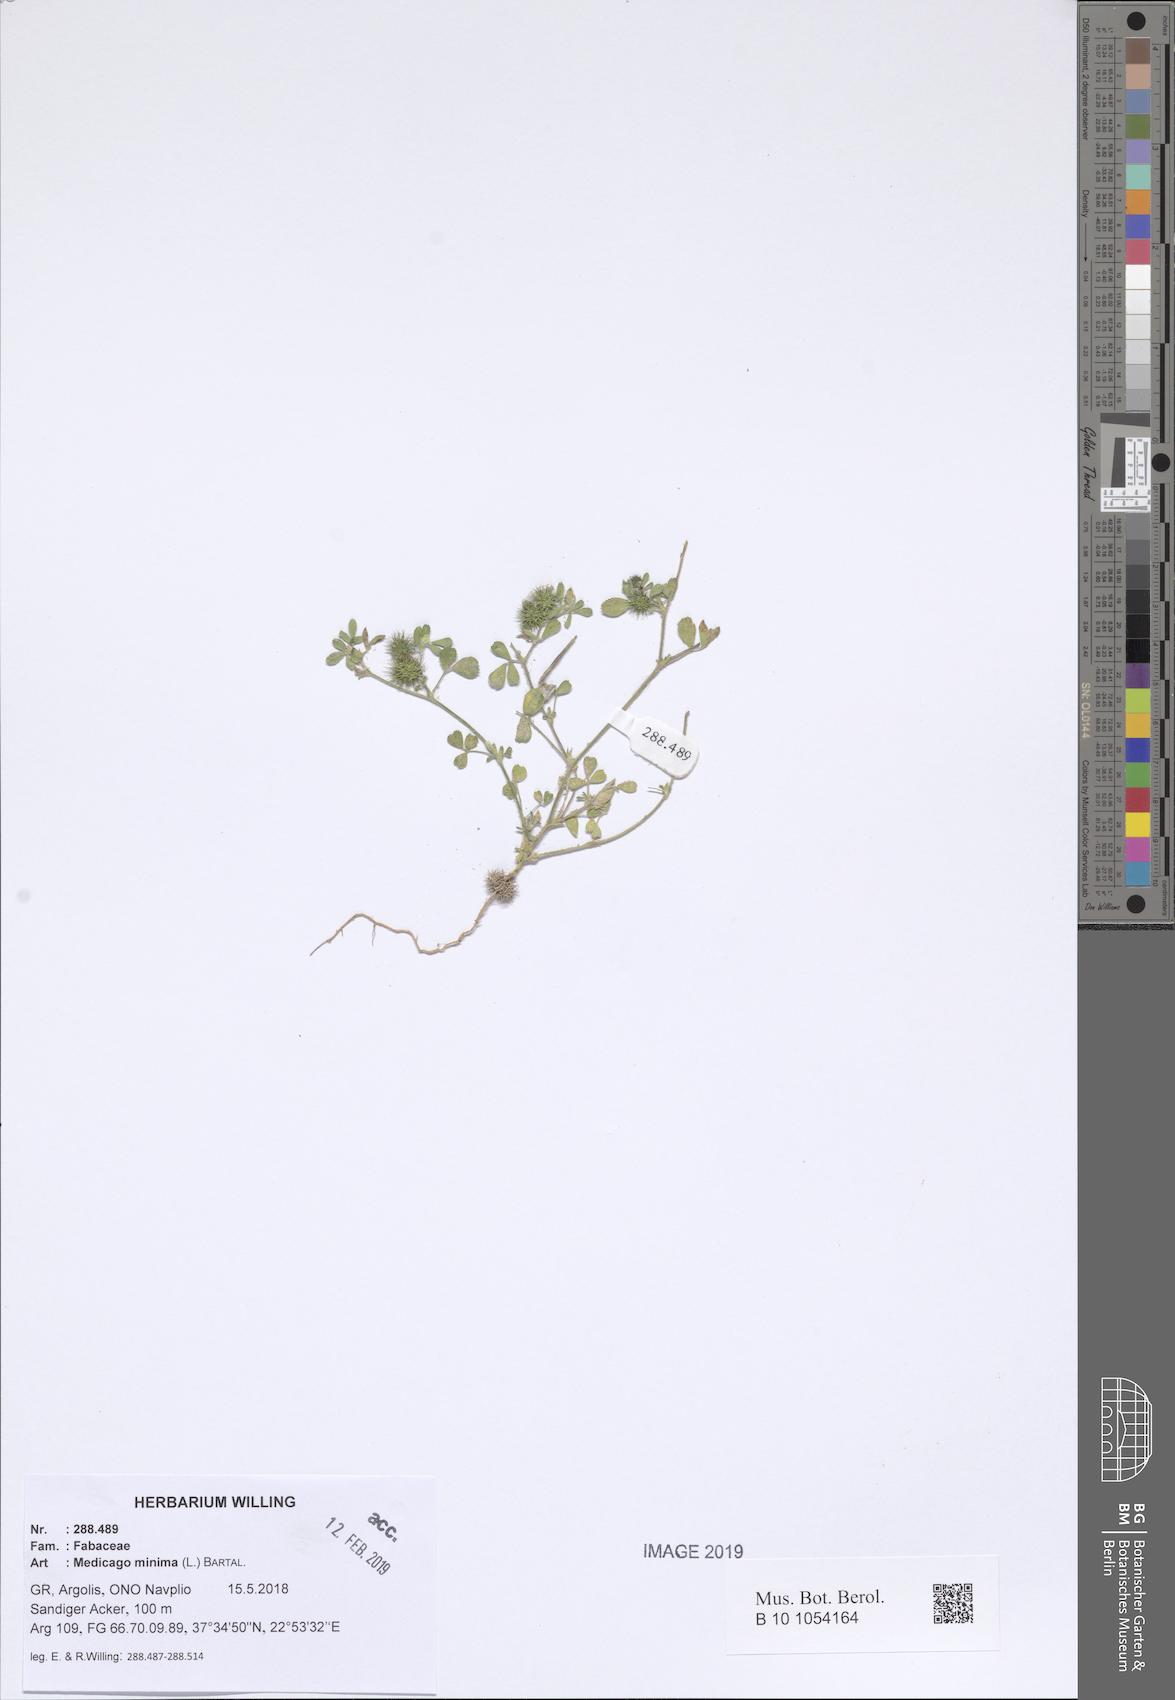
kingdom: Plantae
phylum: Tracheophyta
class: Magnoliopsida
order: Fabales
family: Fabaceae
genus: Medicago
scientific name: Medicago minima
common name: Little bur-clover
